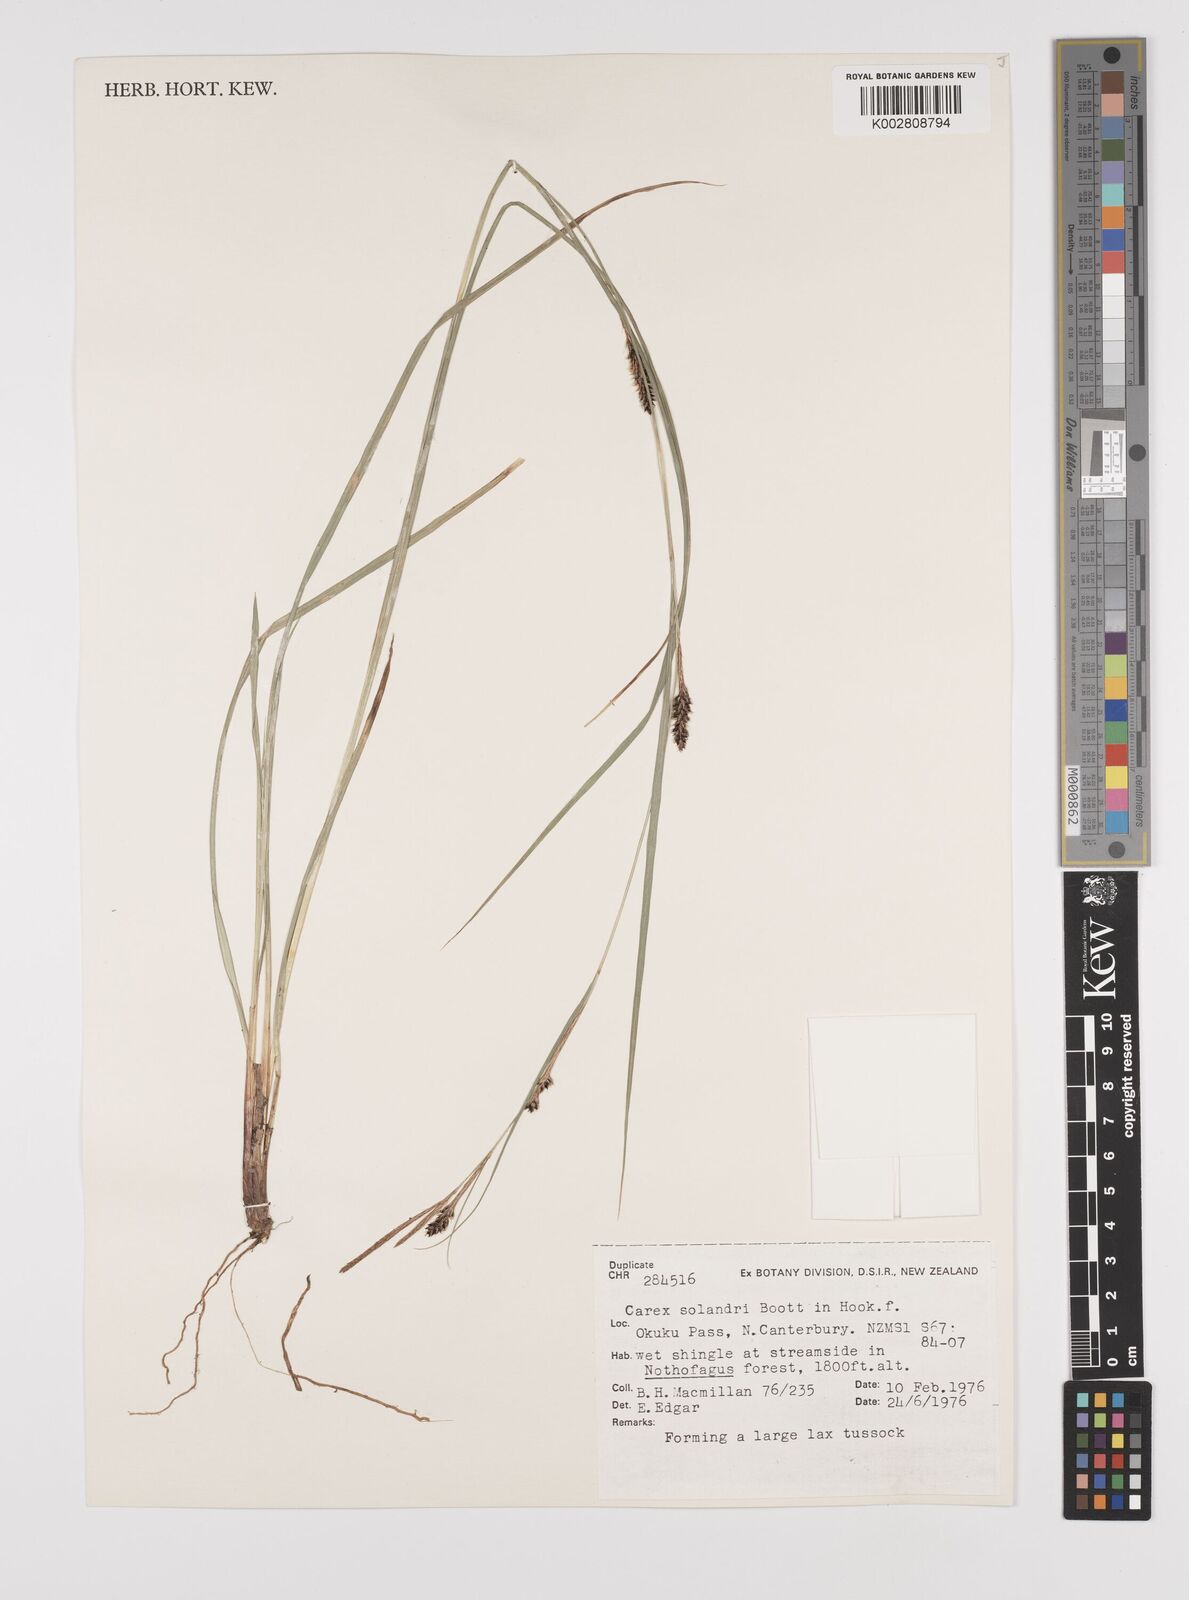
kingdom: Plantae
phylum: Tracheophyta
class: Liliopsida
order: Poales
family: Cyperaceae
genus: Carex
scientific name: Carex dissita
